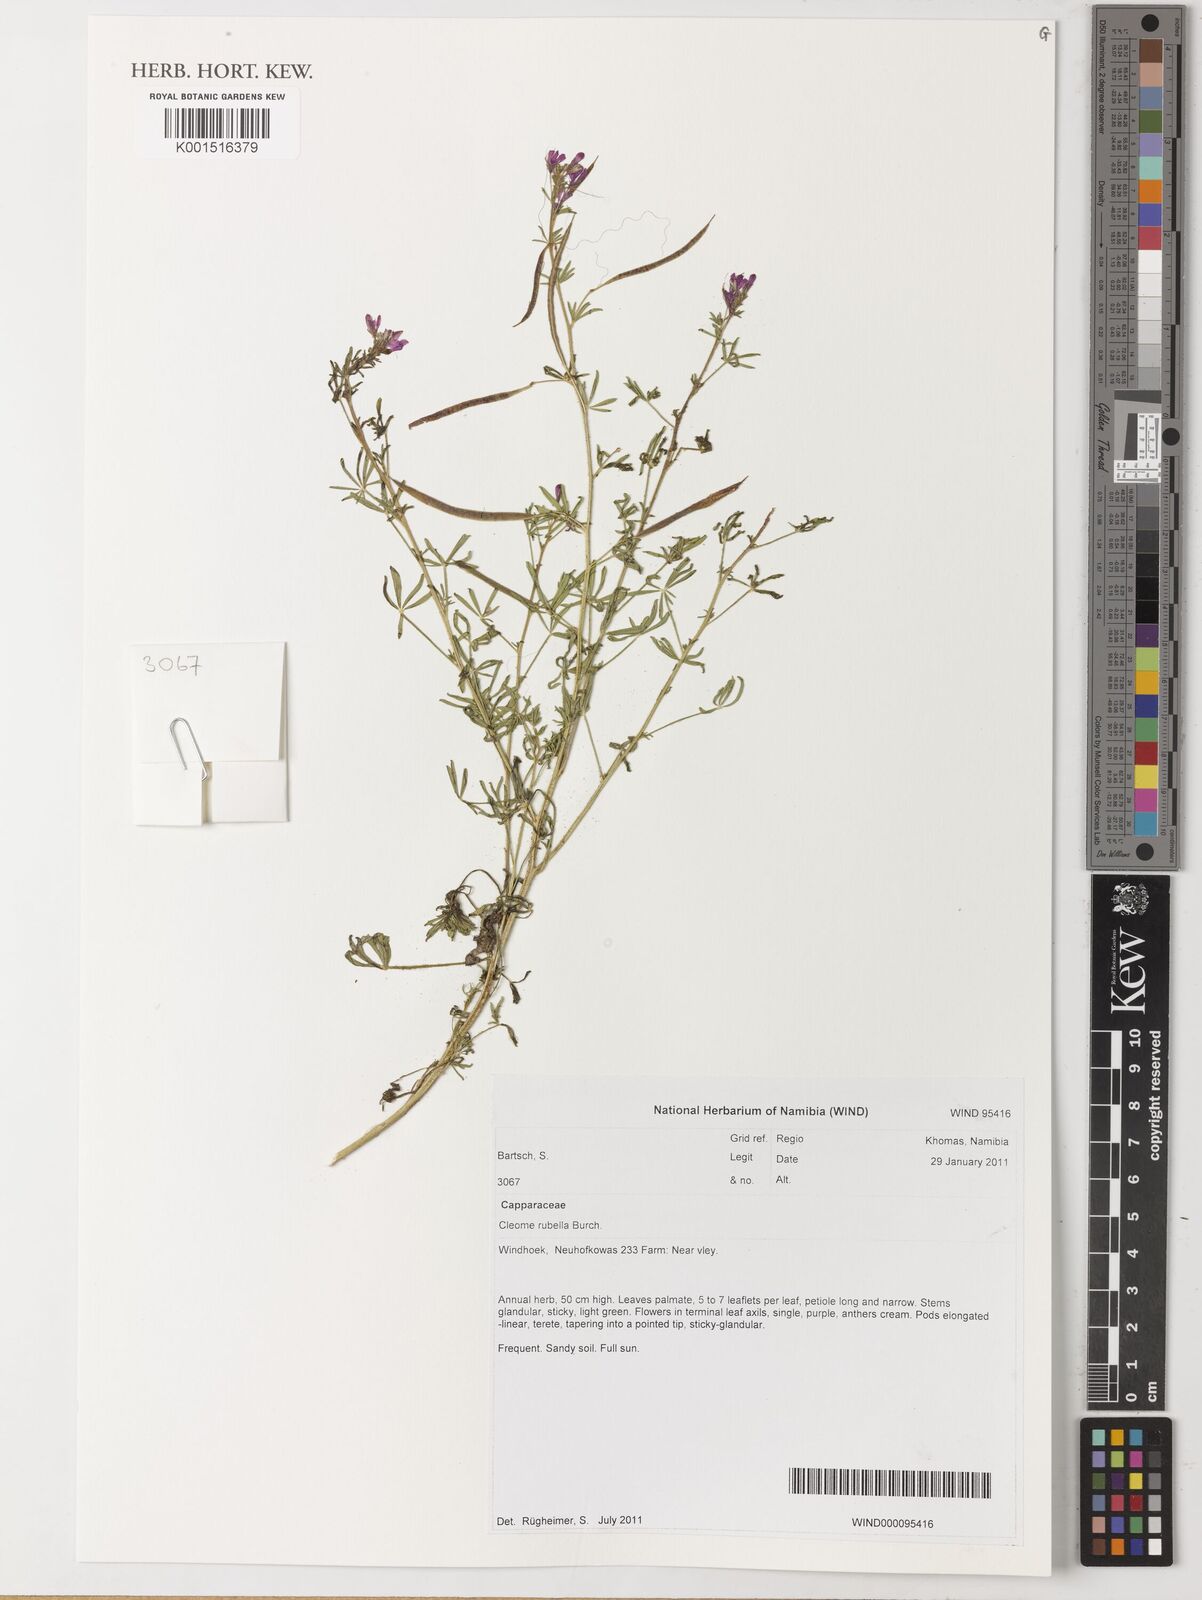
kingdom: Plantae
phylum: Tracheophyta
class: Magnoliopsida
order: Brassicales
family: Cleomaceae
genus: Sieruela
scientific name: Sieruela rubella
